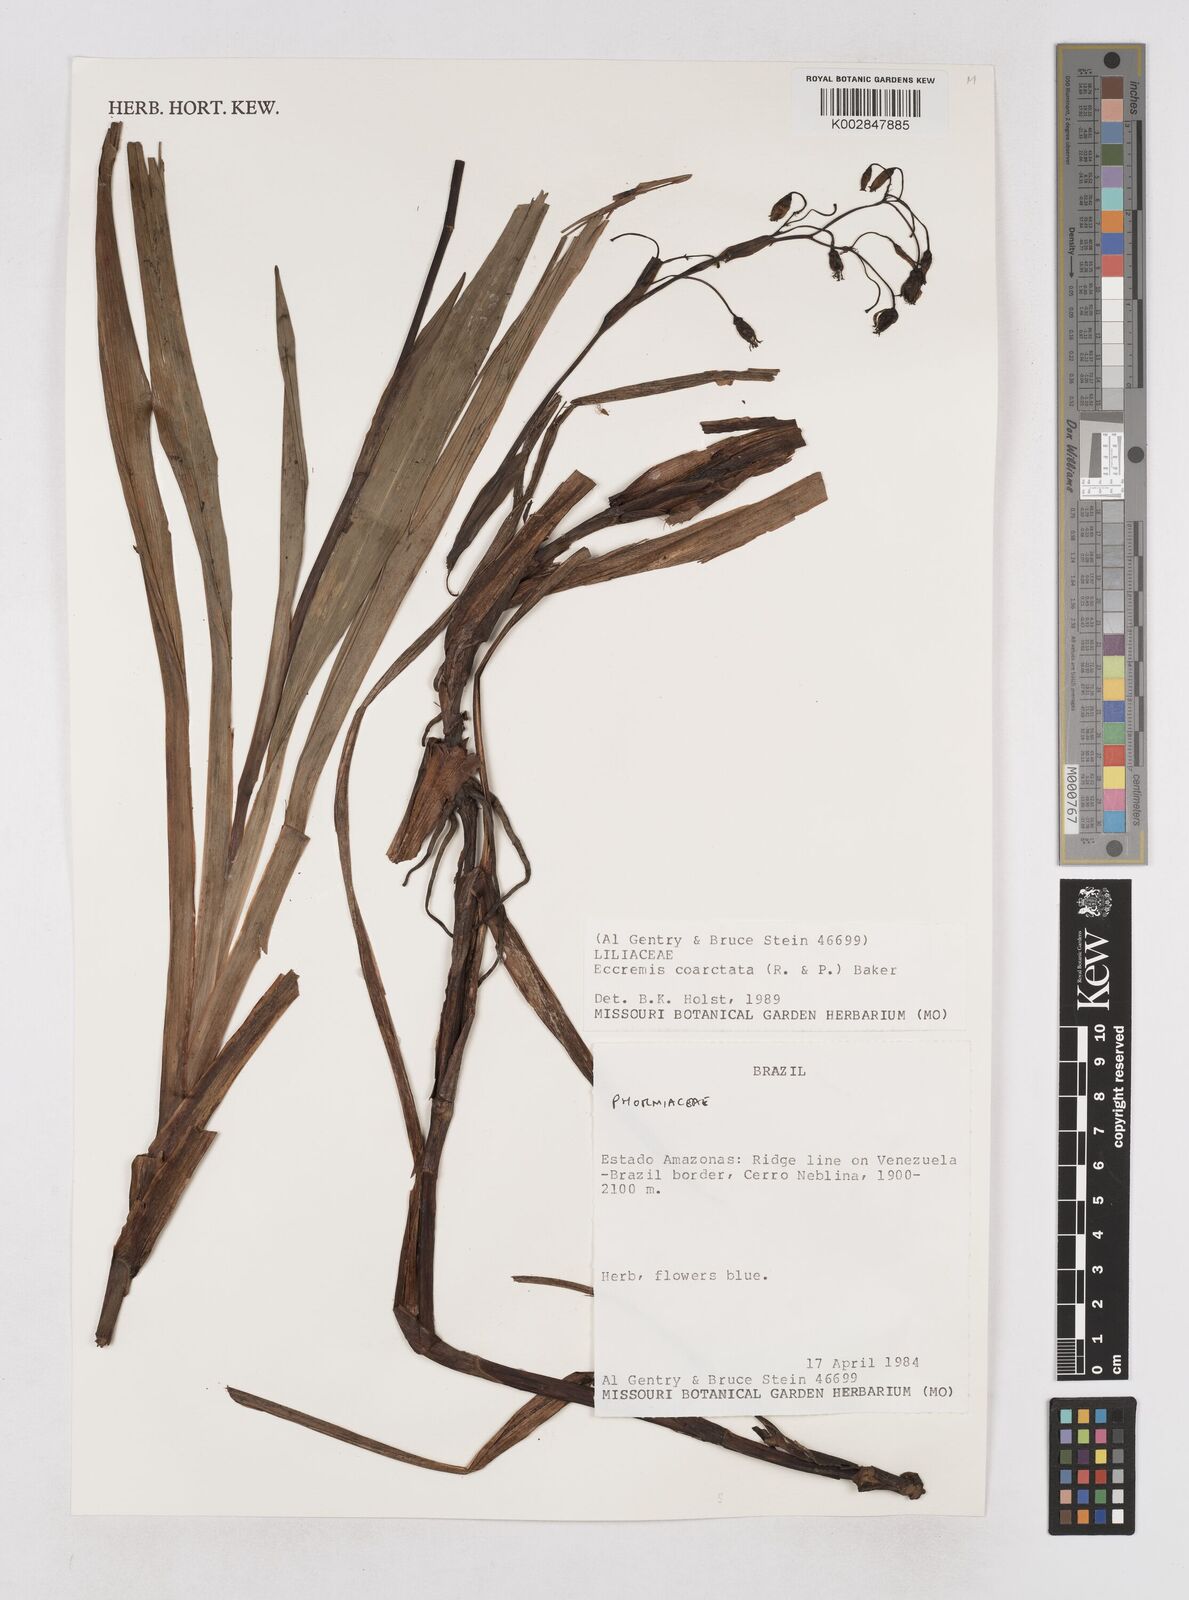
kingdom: Plantae
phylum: Tracheophyta
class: Liliopsida
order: Asparagales
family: Asphodelaceae
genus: Excremis
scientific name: Excremis coarctata
